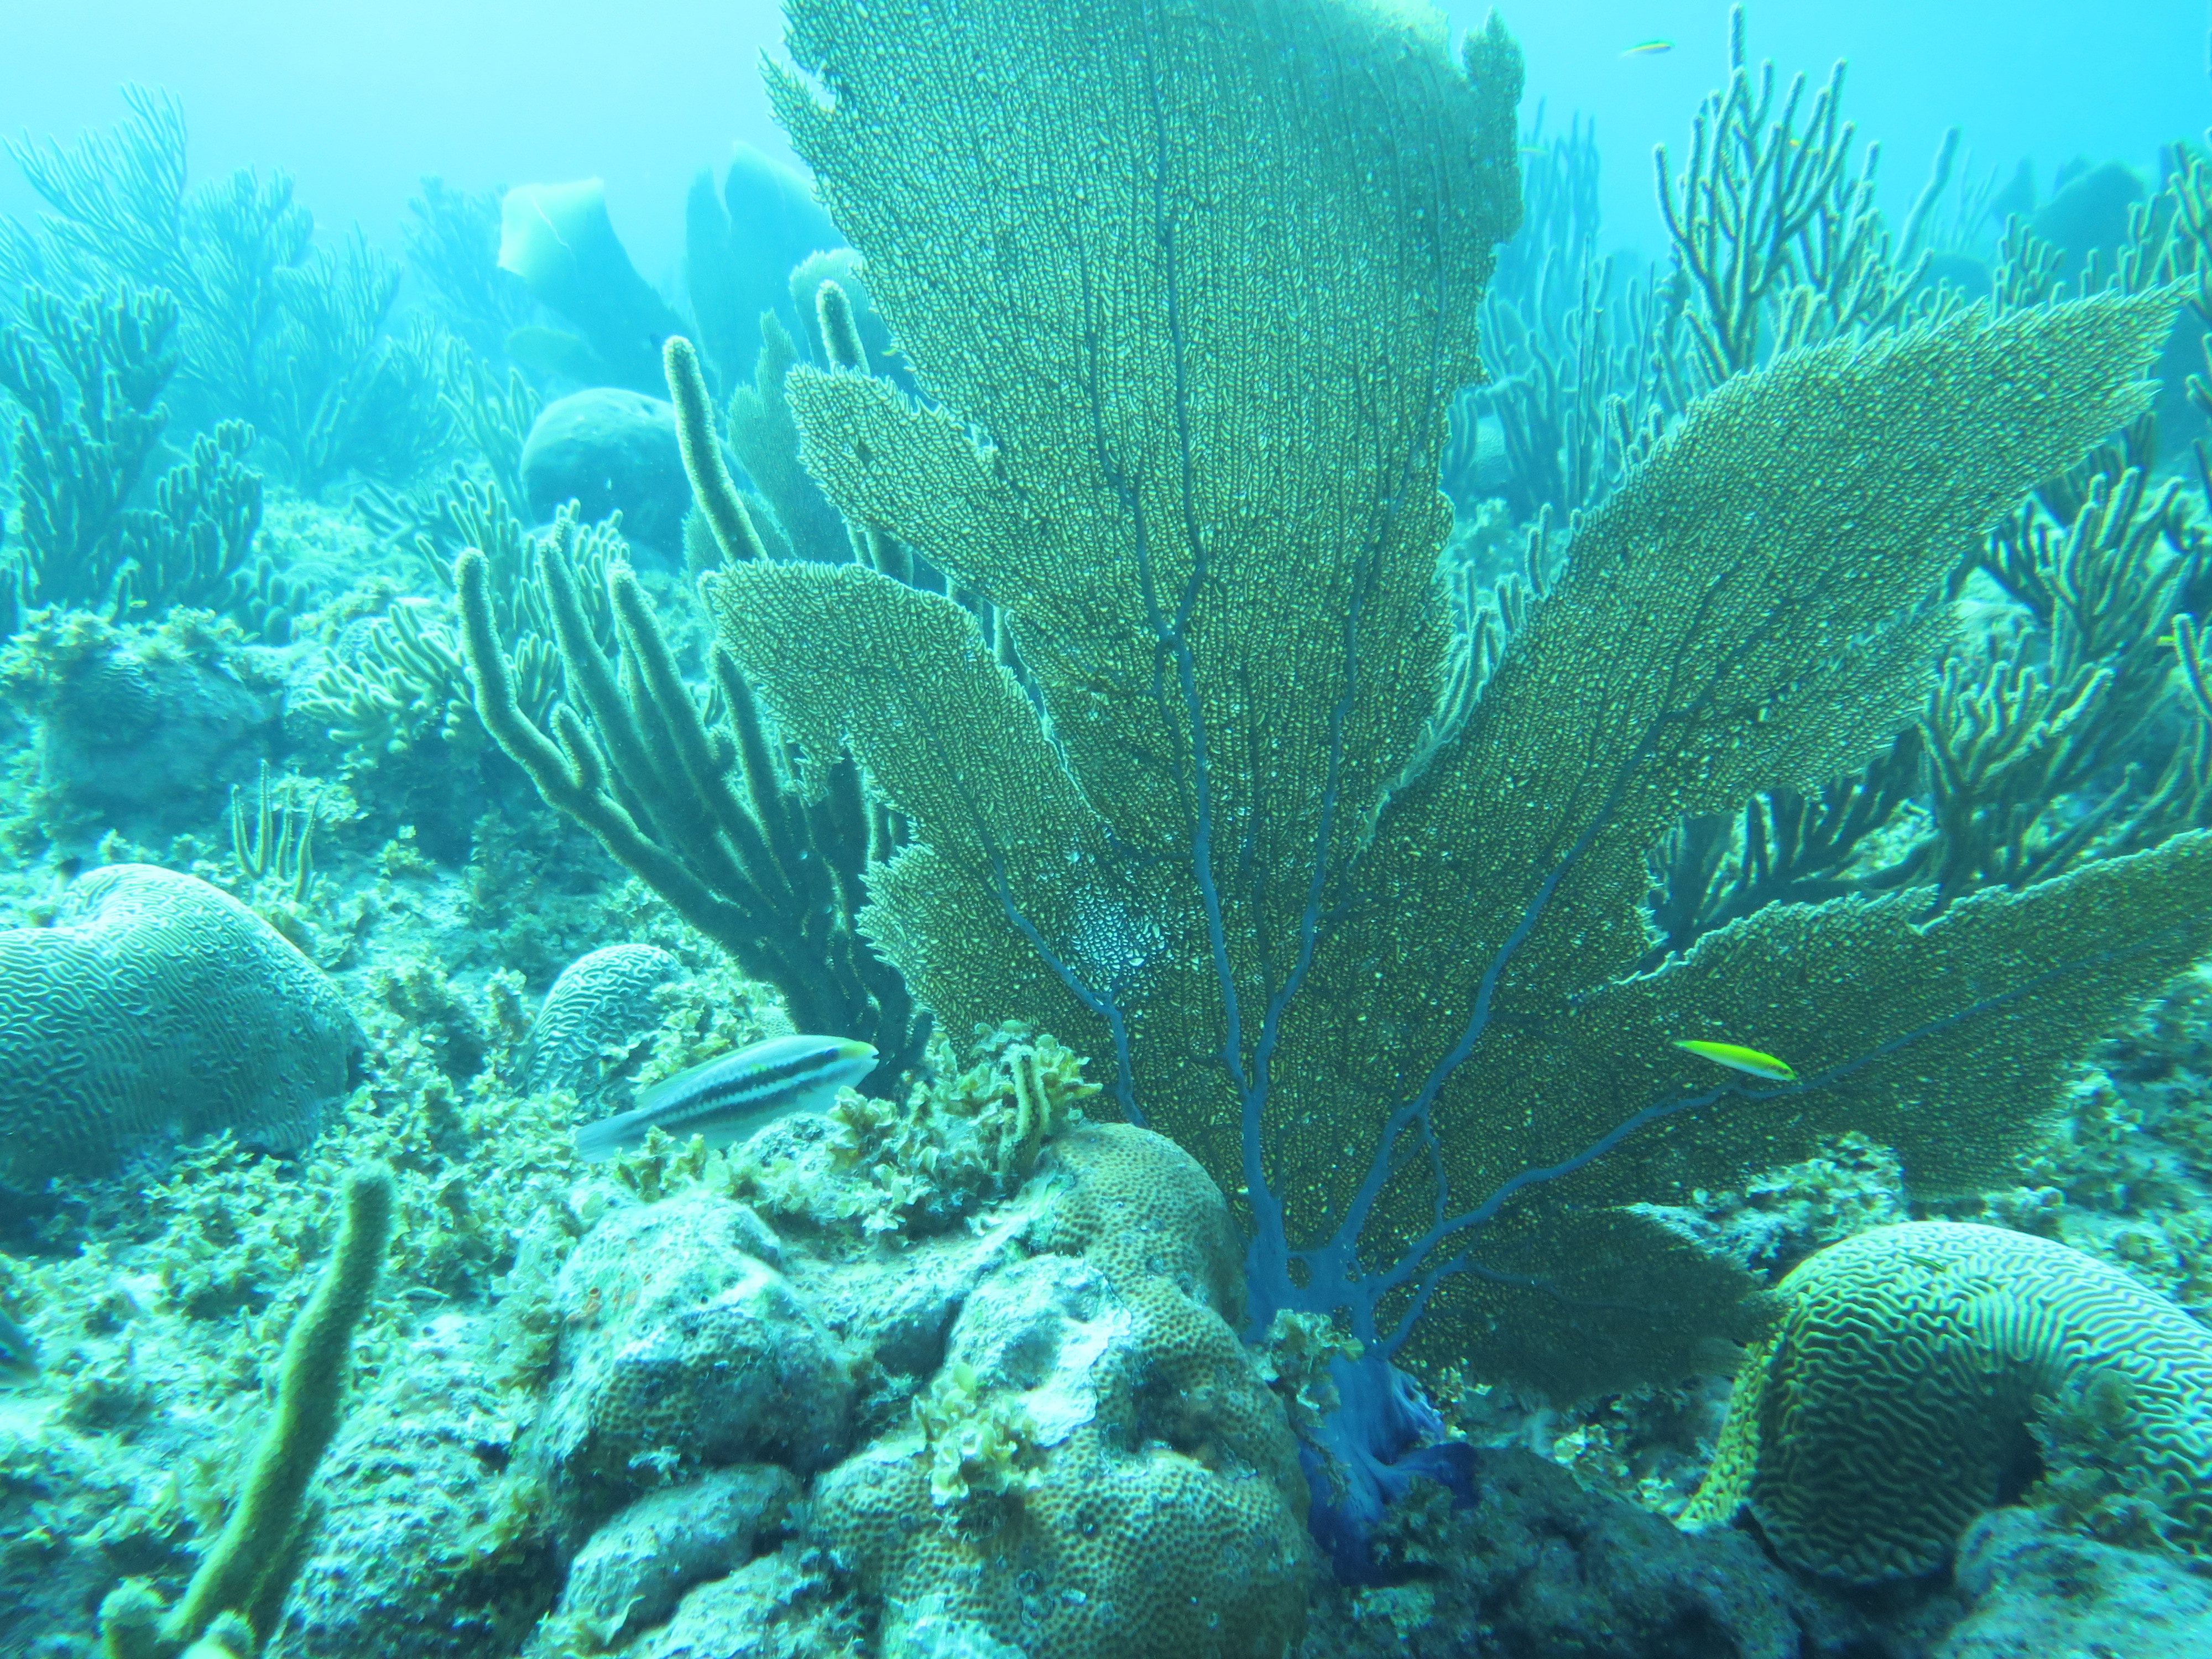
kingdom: Animalia
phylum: Cnidaria
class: Anthozoa
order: Malacalcyonacea
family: Gorgoniidae
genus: Gorgonia
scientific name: Gorgonia ventalina
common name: Common sea fan
